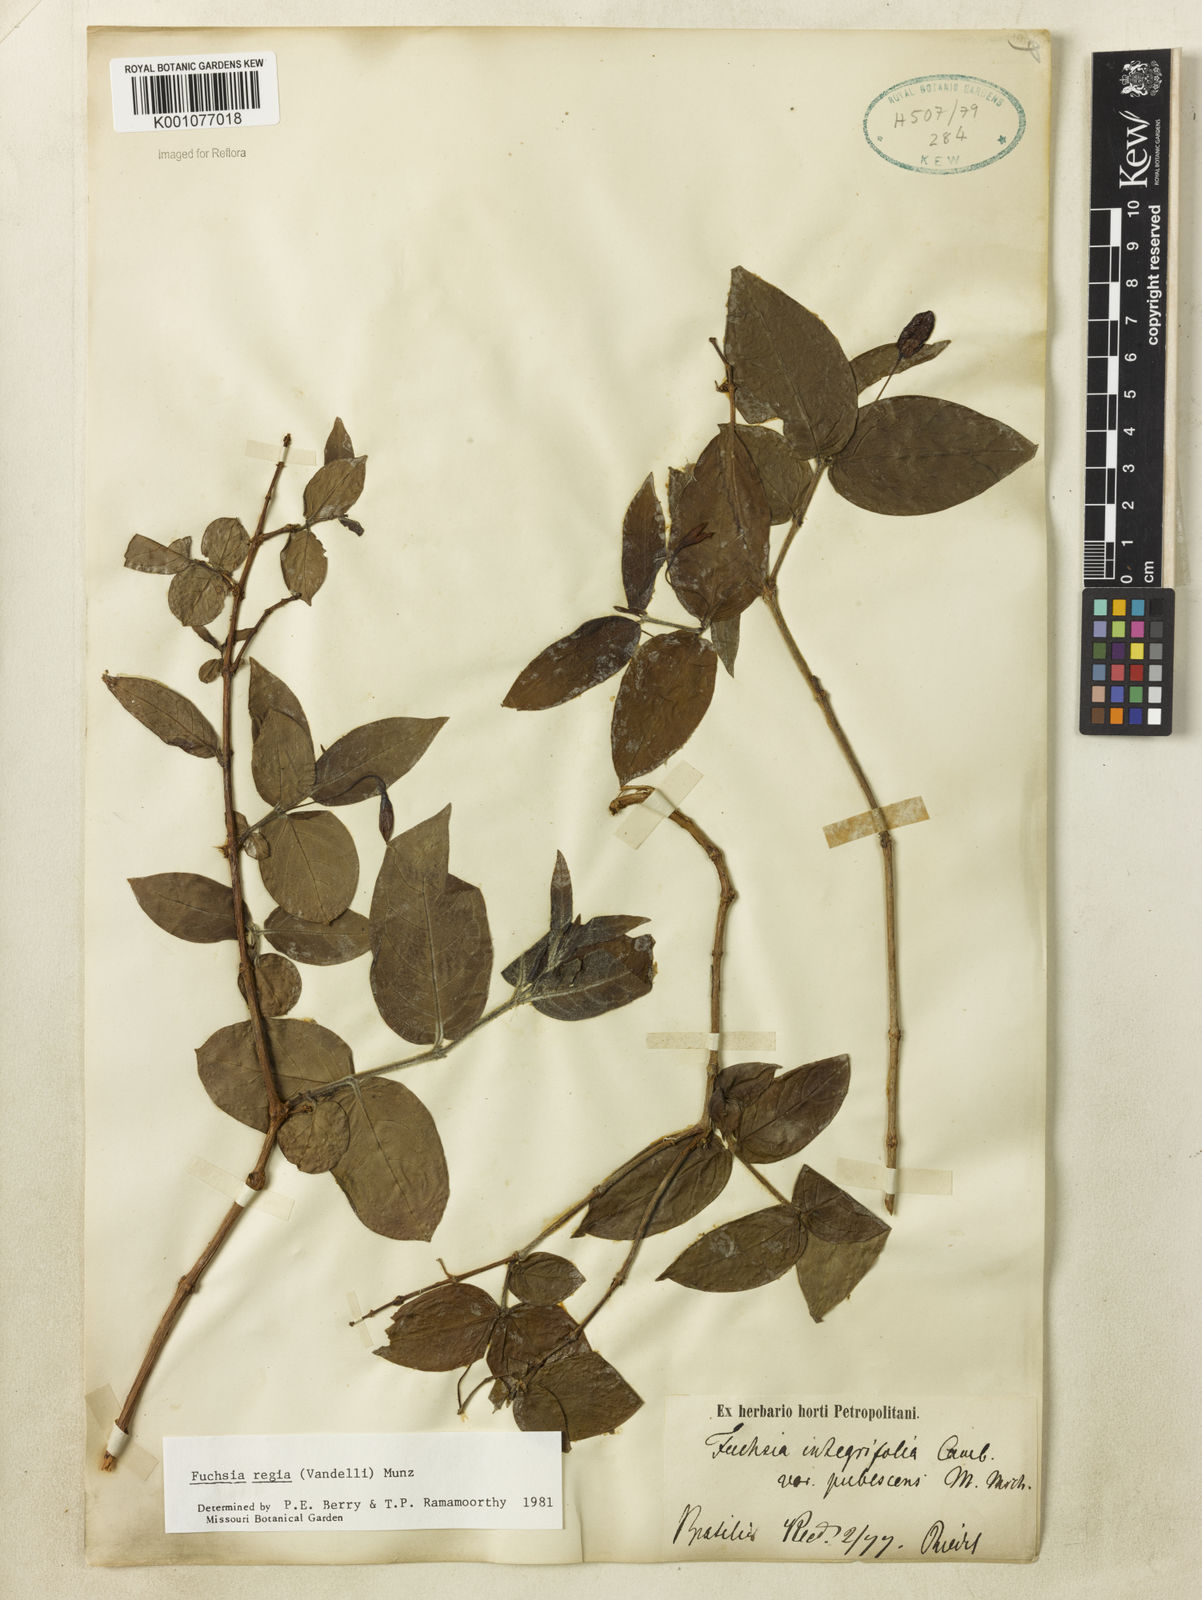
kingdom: Plantae
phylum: Tracheophyta
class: Magnoliopsida
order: Myrtales
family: Onagraceae
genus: Fuchsia
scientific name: Fuchsia regia
